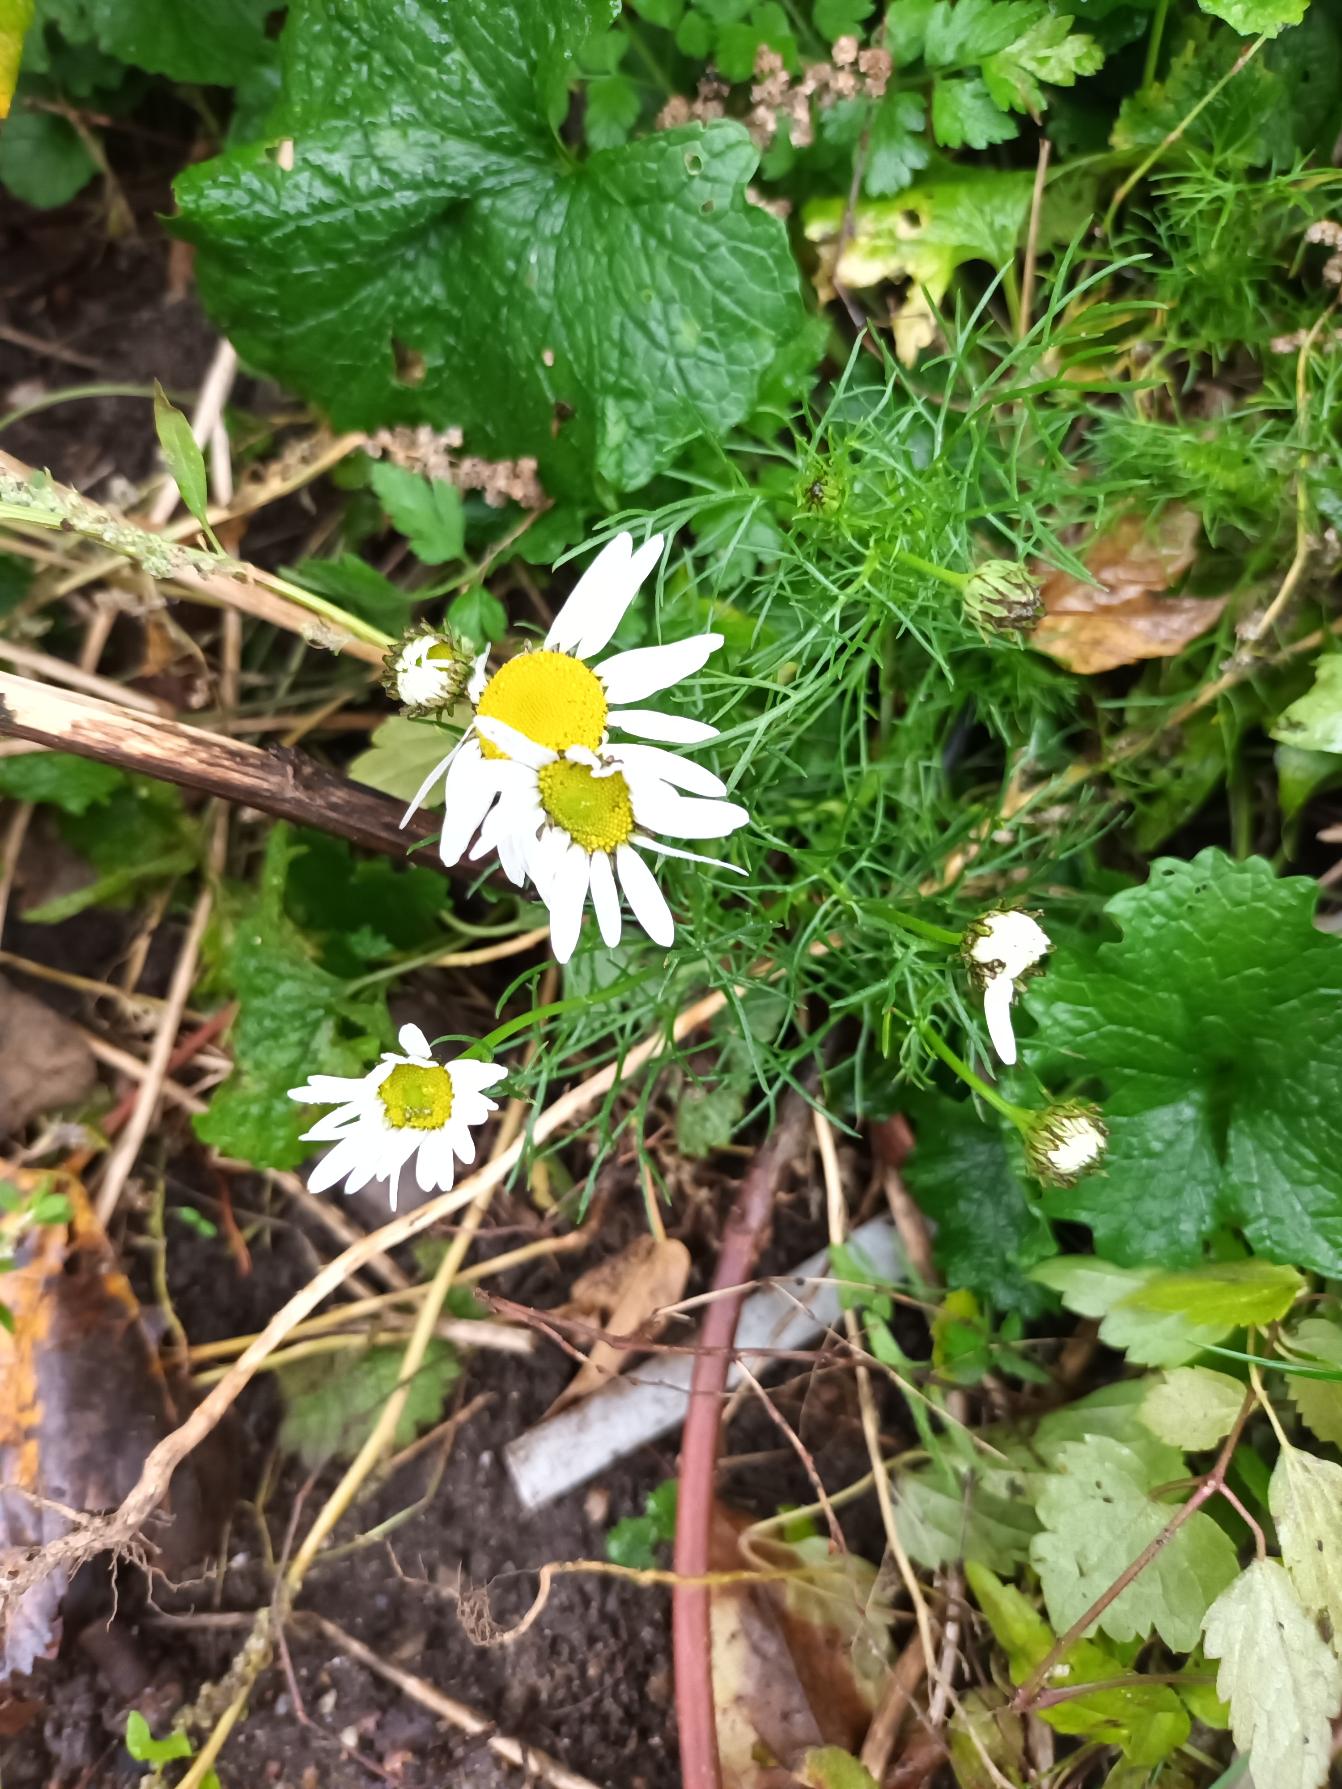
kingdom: Plantae
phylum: Tracheophyta
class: Magnoliopsida
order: Asterales
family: Asteraceae
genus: Tripleurospermum
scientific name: Tripleurospermum inodorum
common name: Lugtløs kamille
